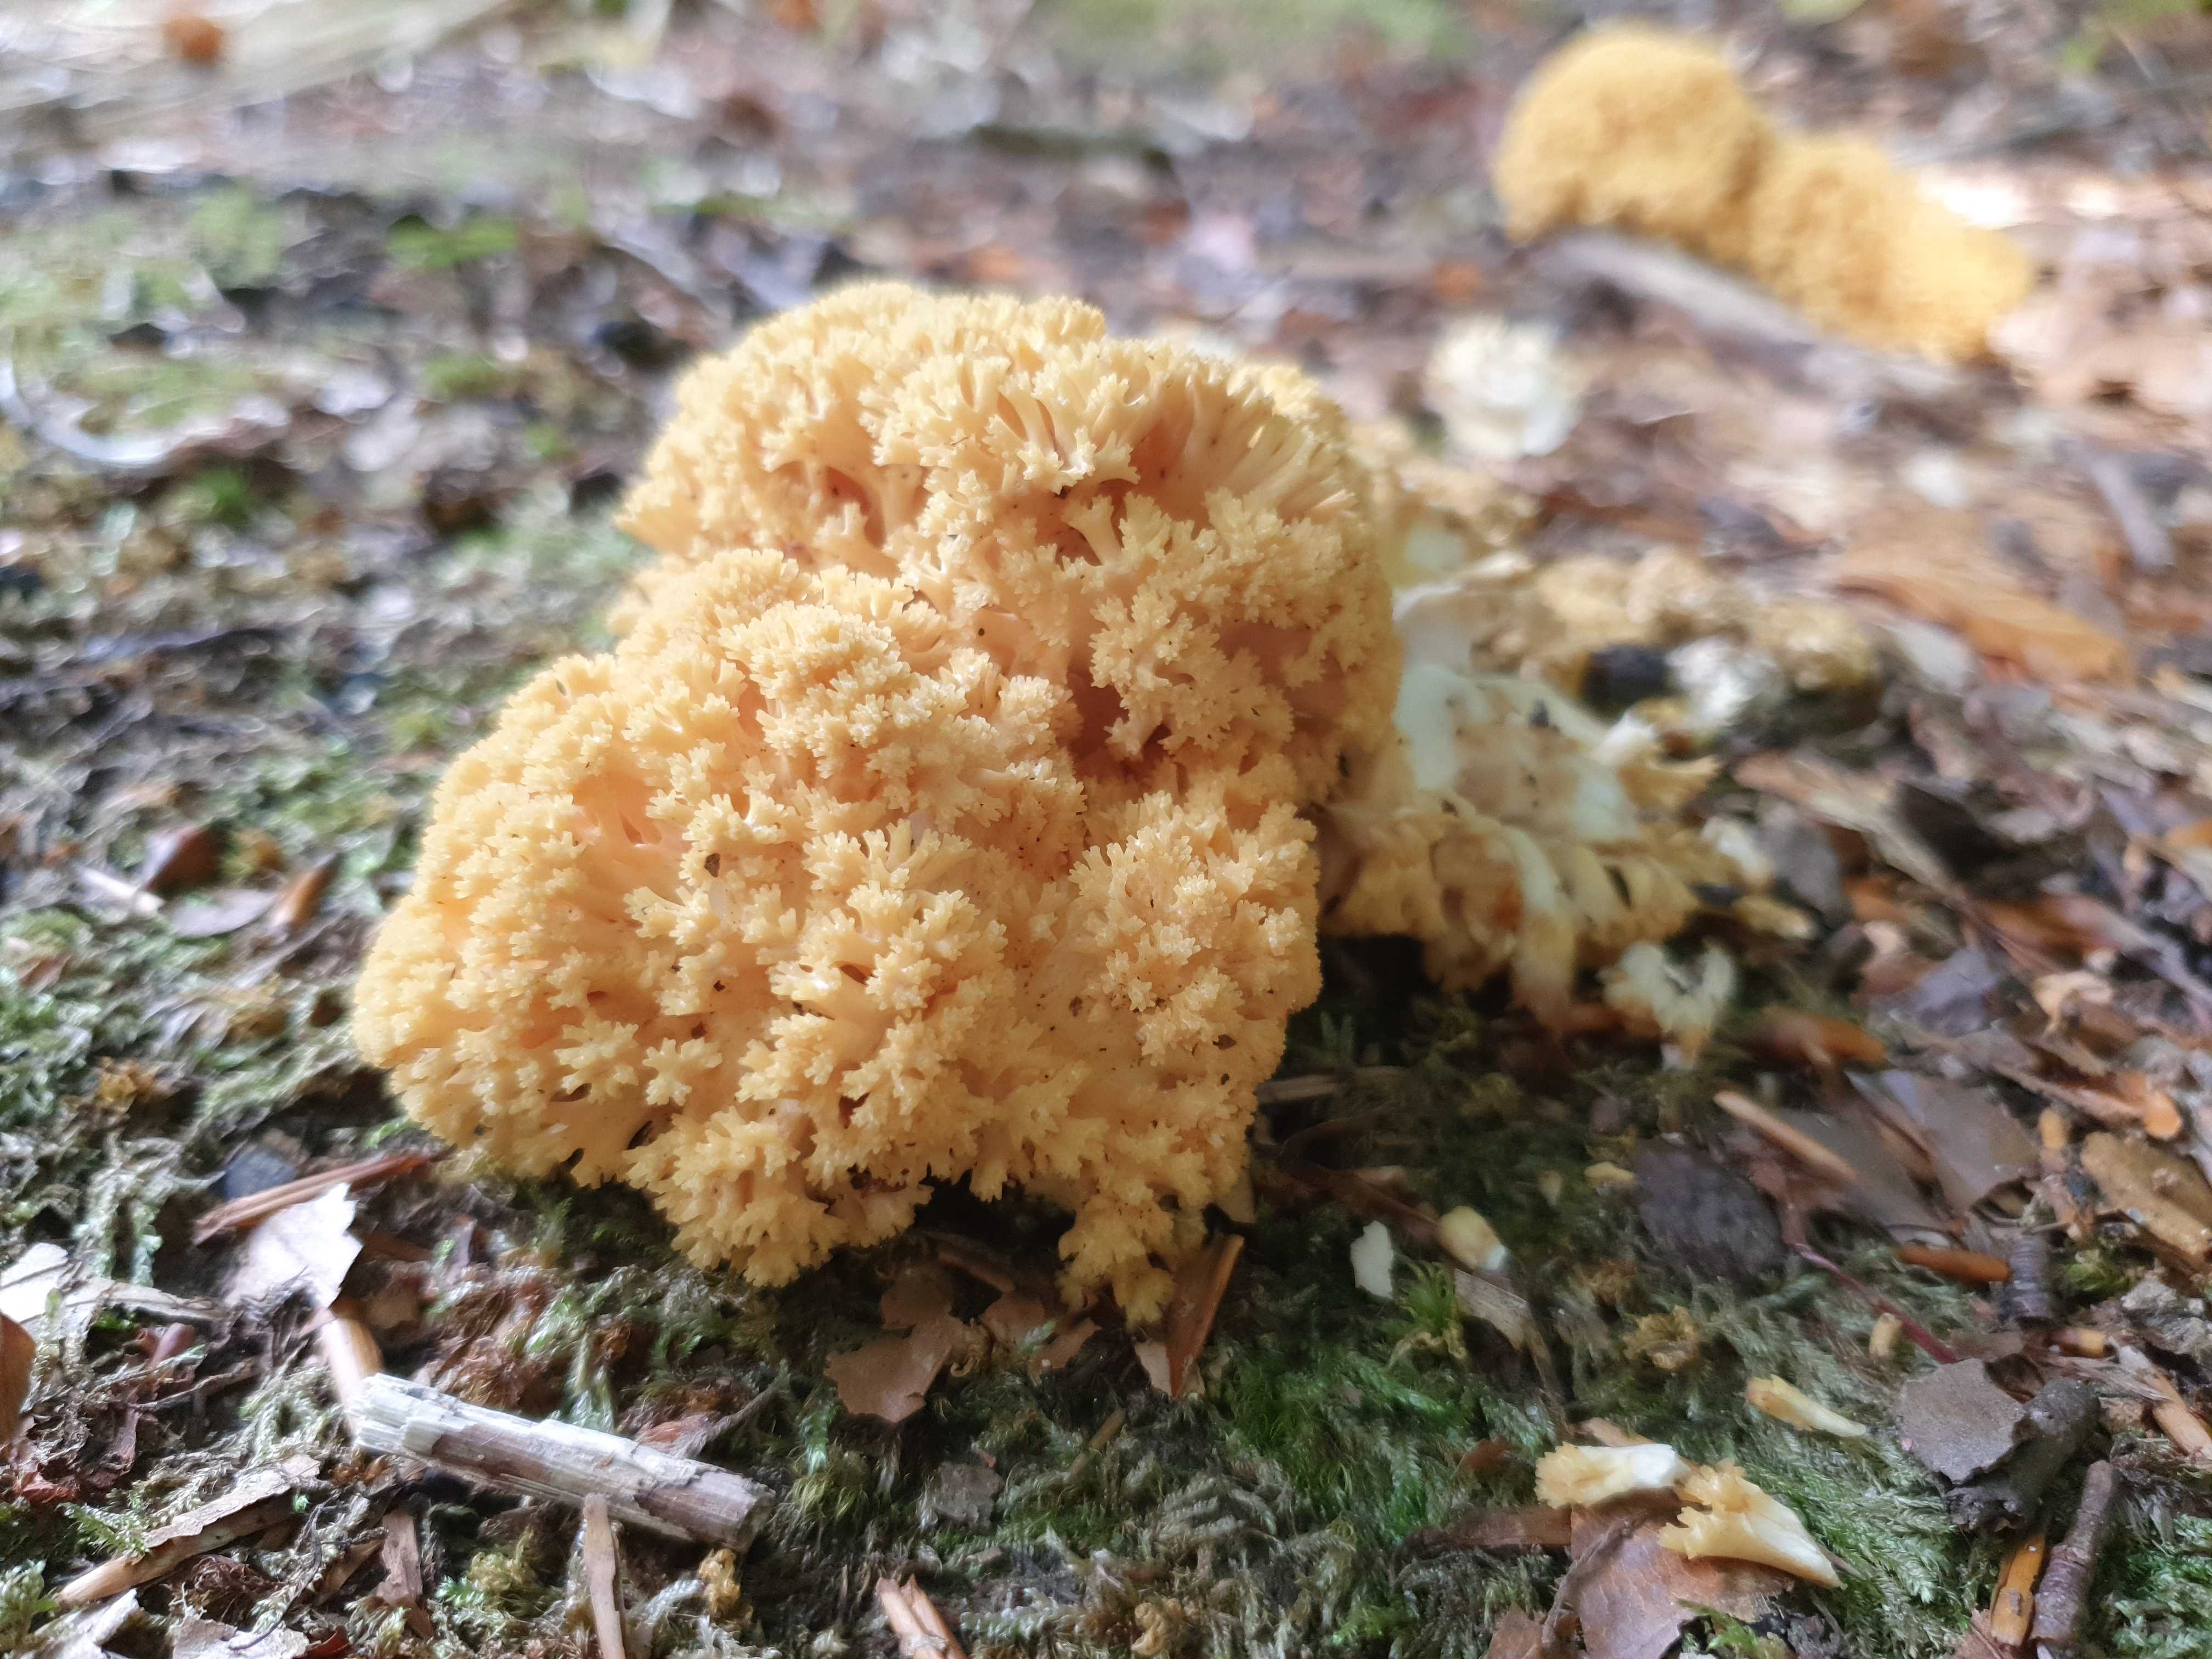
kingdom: Fungi
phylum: Basidiomycota
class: Agaricomycetes
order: Gomphales
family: Gomphaceae
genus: Ramaria
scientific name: Ramaria flavescens
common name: stor koralsvamp
